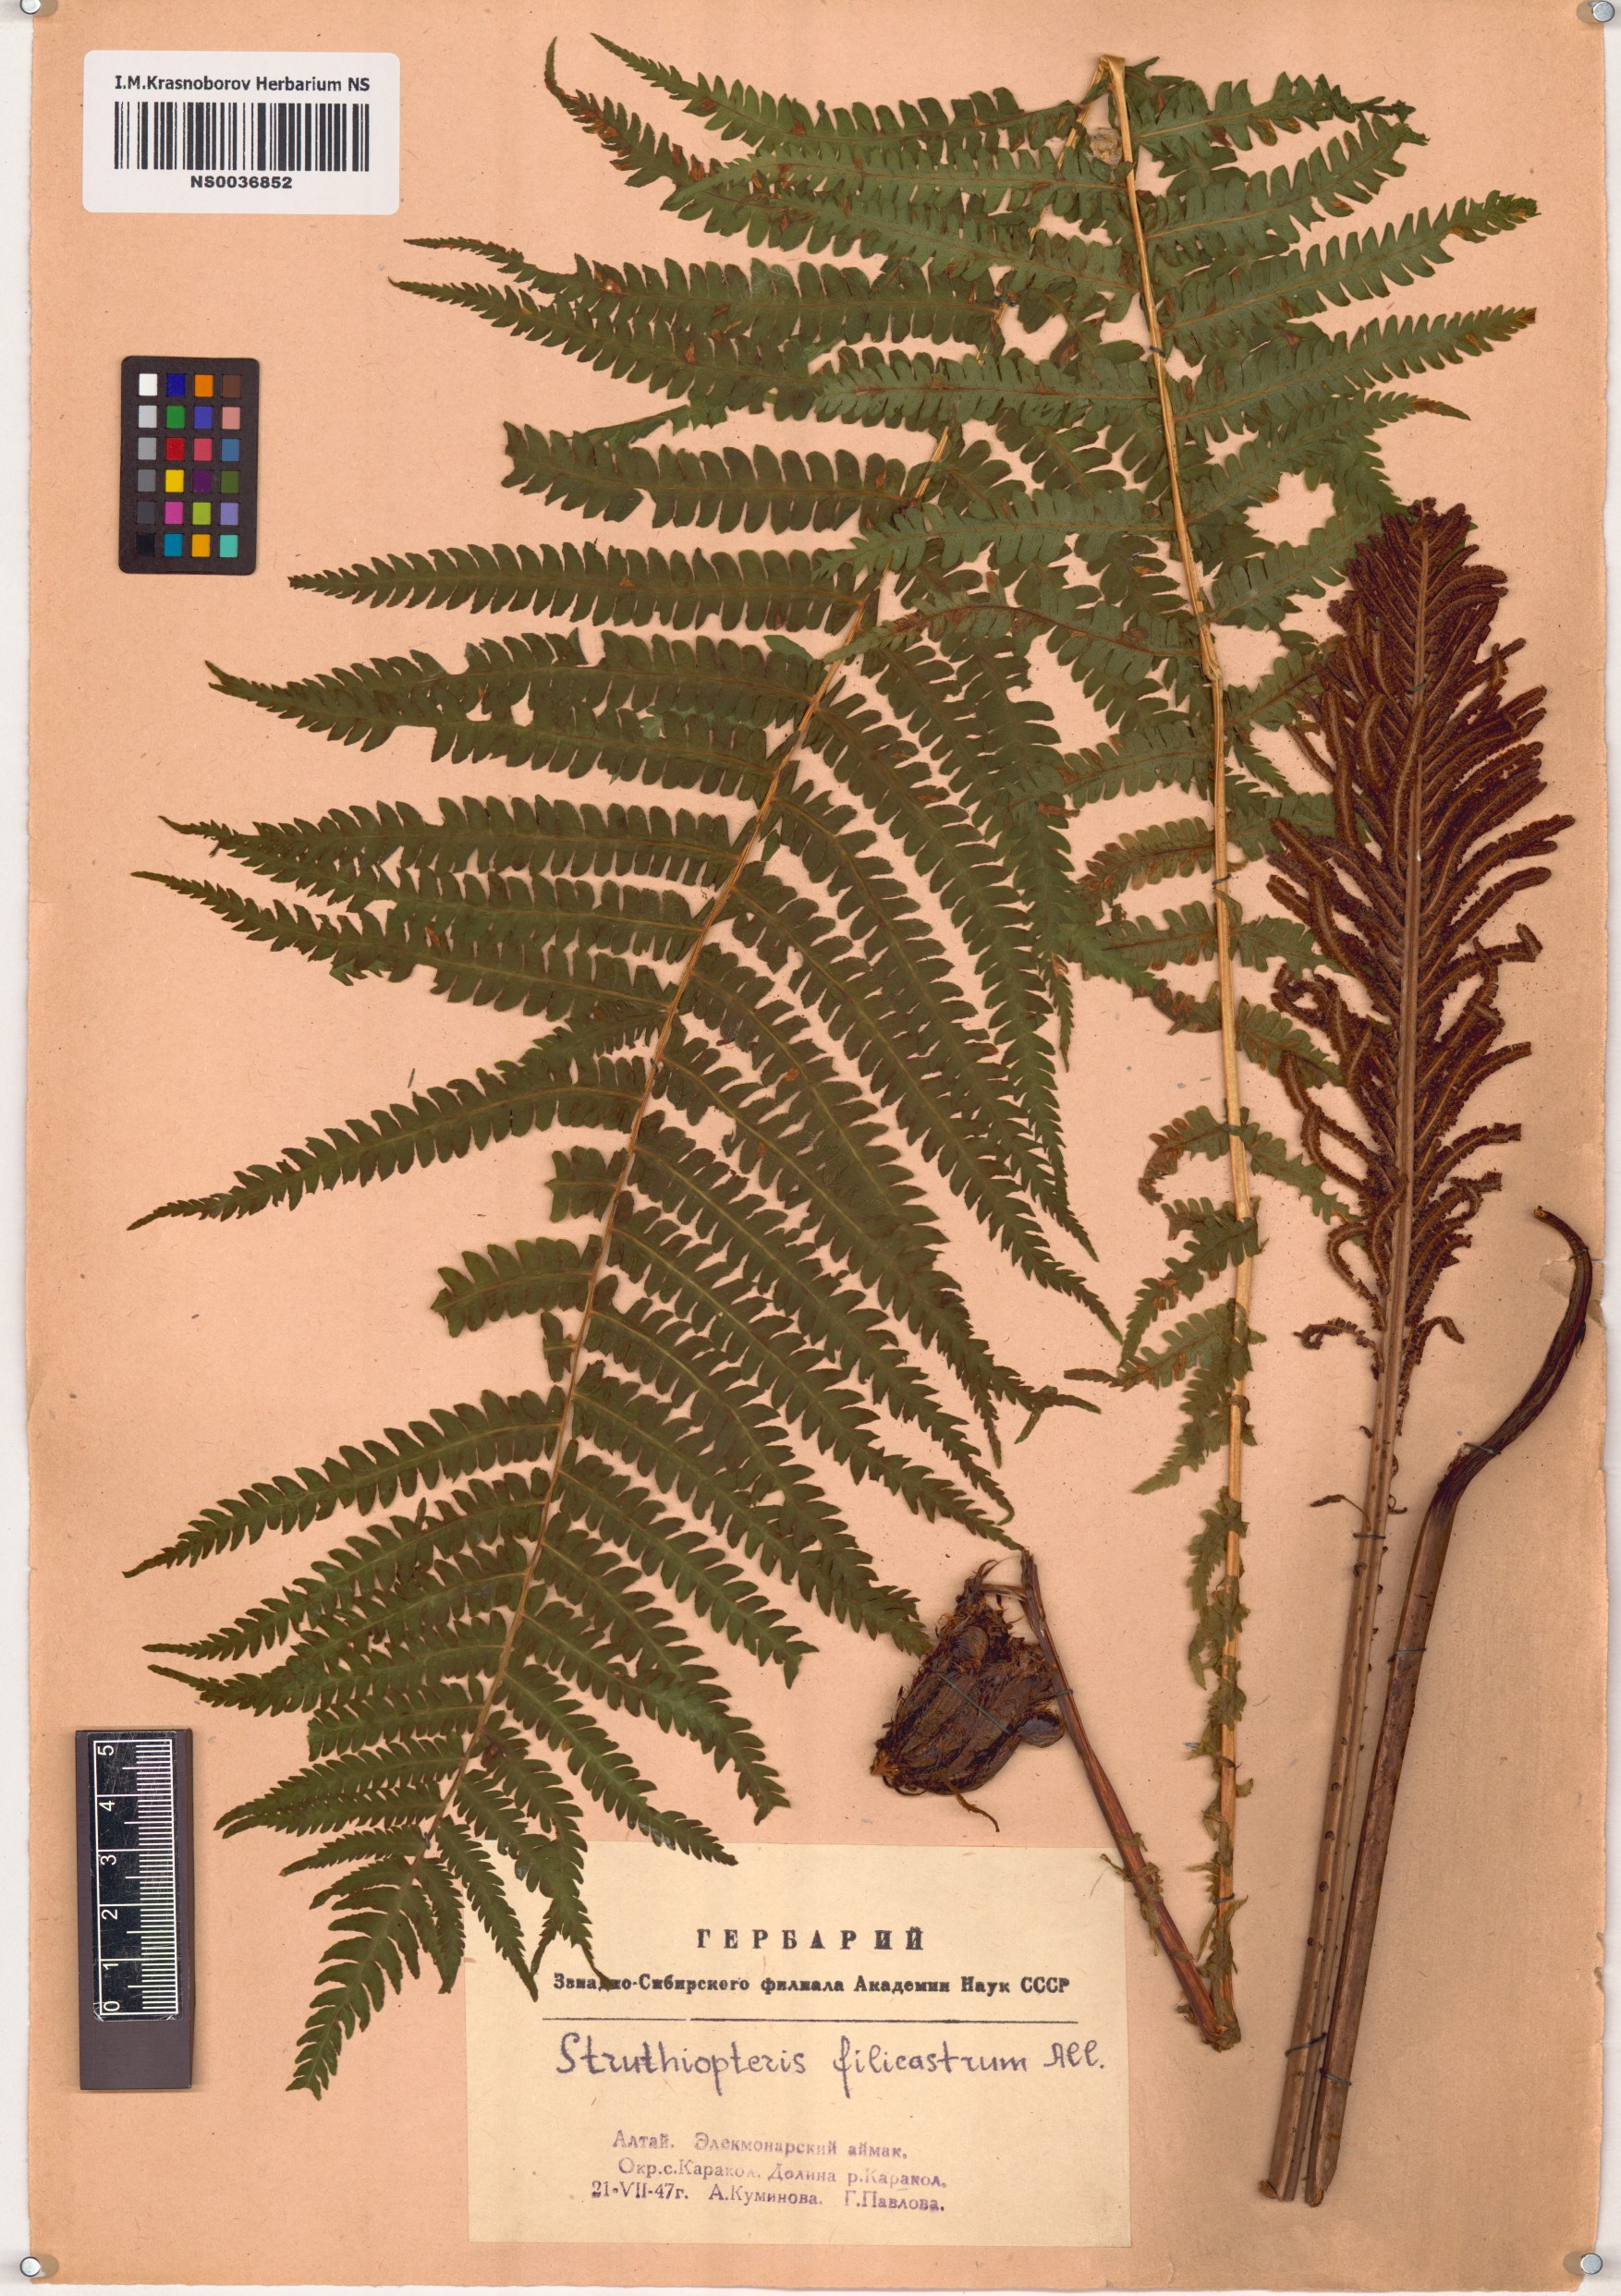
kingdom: Plantae
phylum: Tracheophyta
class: Polypodiopsida
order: Polypodiales
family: Onocleaceae
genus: Matteuccia
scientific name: Matteuccia struthiopteris
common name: Ostrich fern
